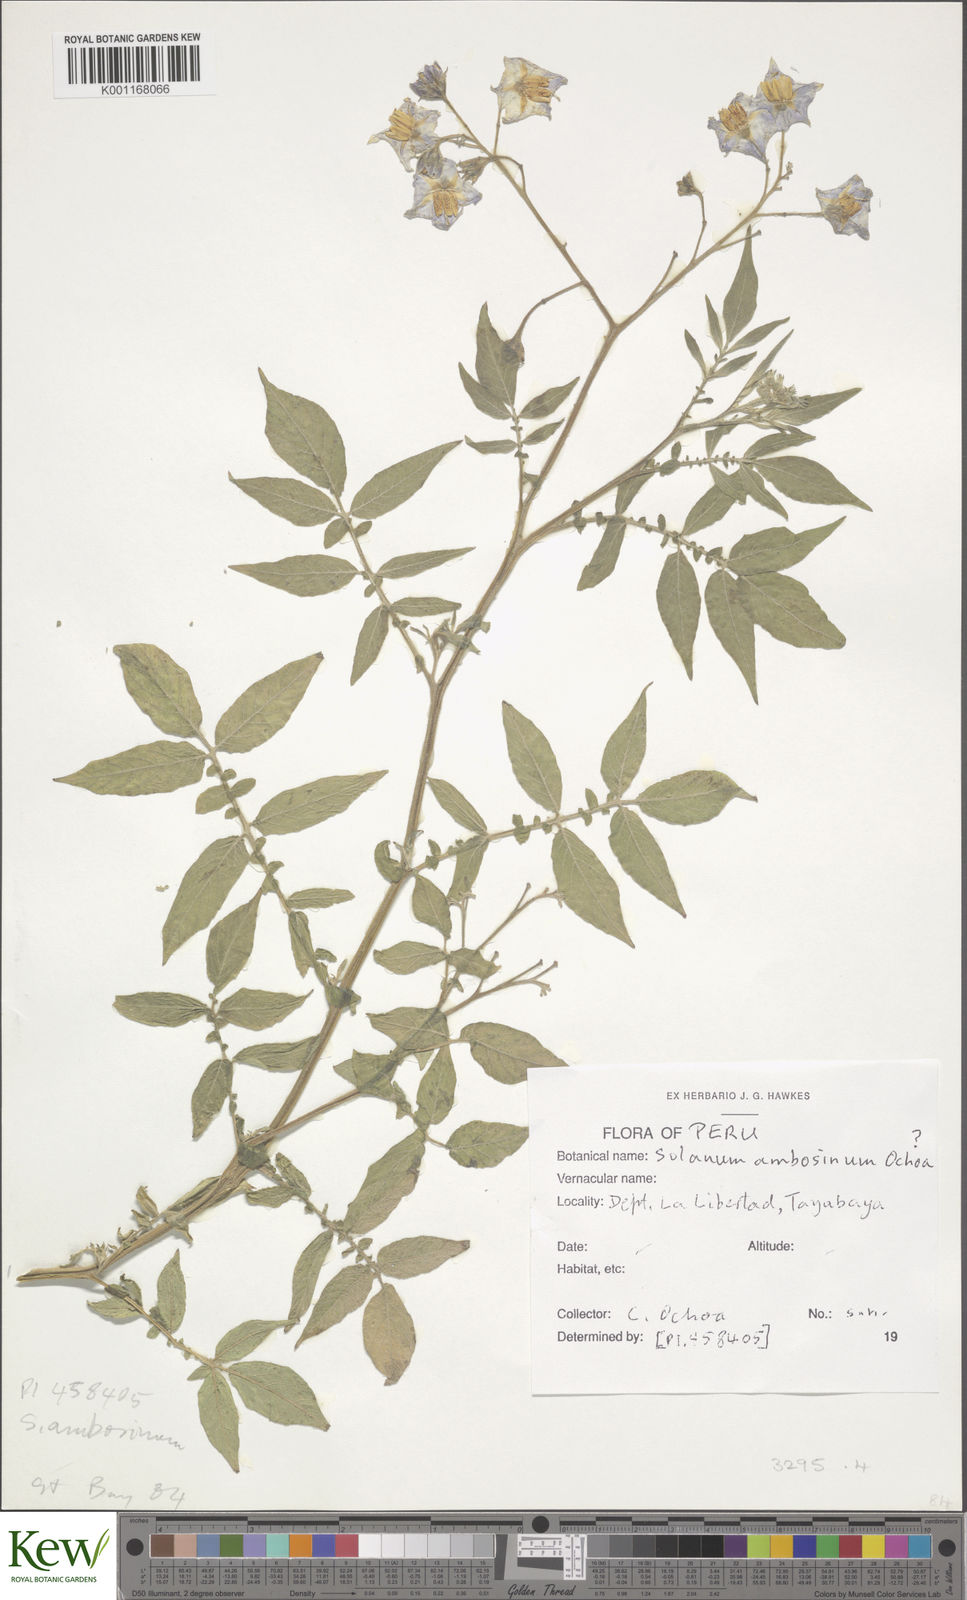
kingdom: Plantae
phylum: Tracheophyta
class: Magnoliopsida
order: Solanales
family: Solanaceae
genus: Solanum
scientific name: Solanum candolleanum
